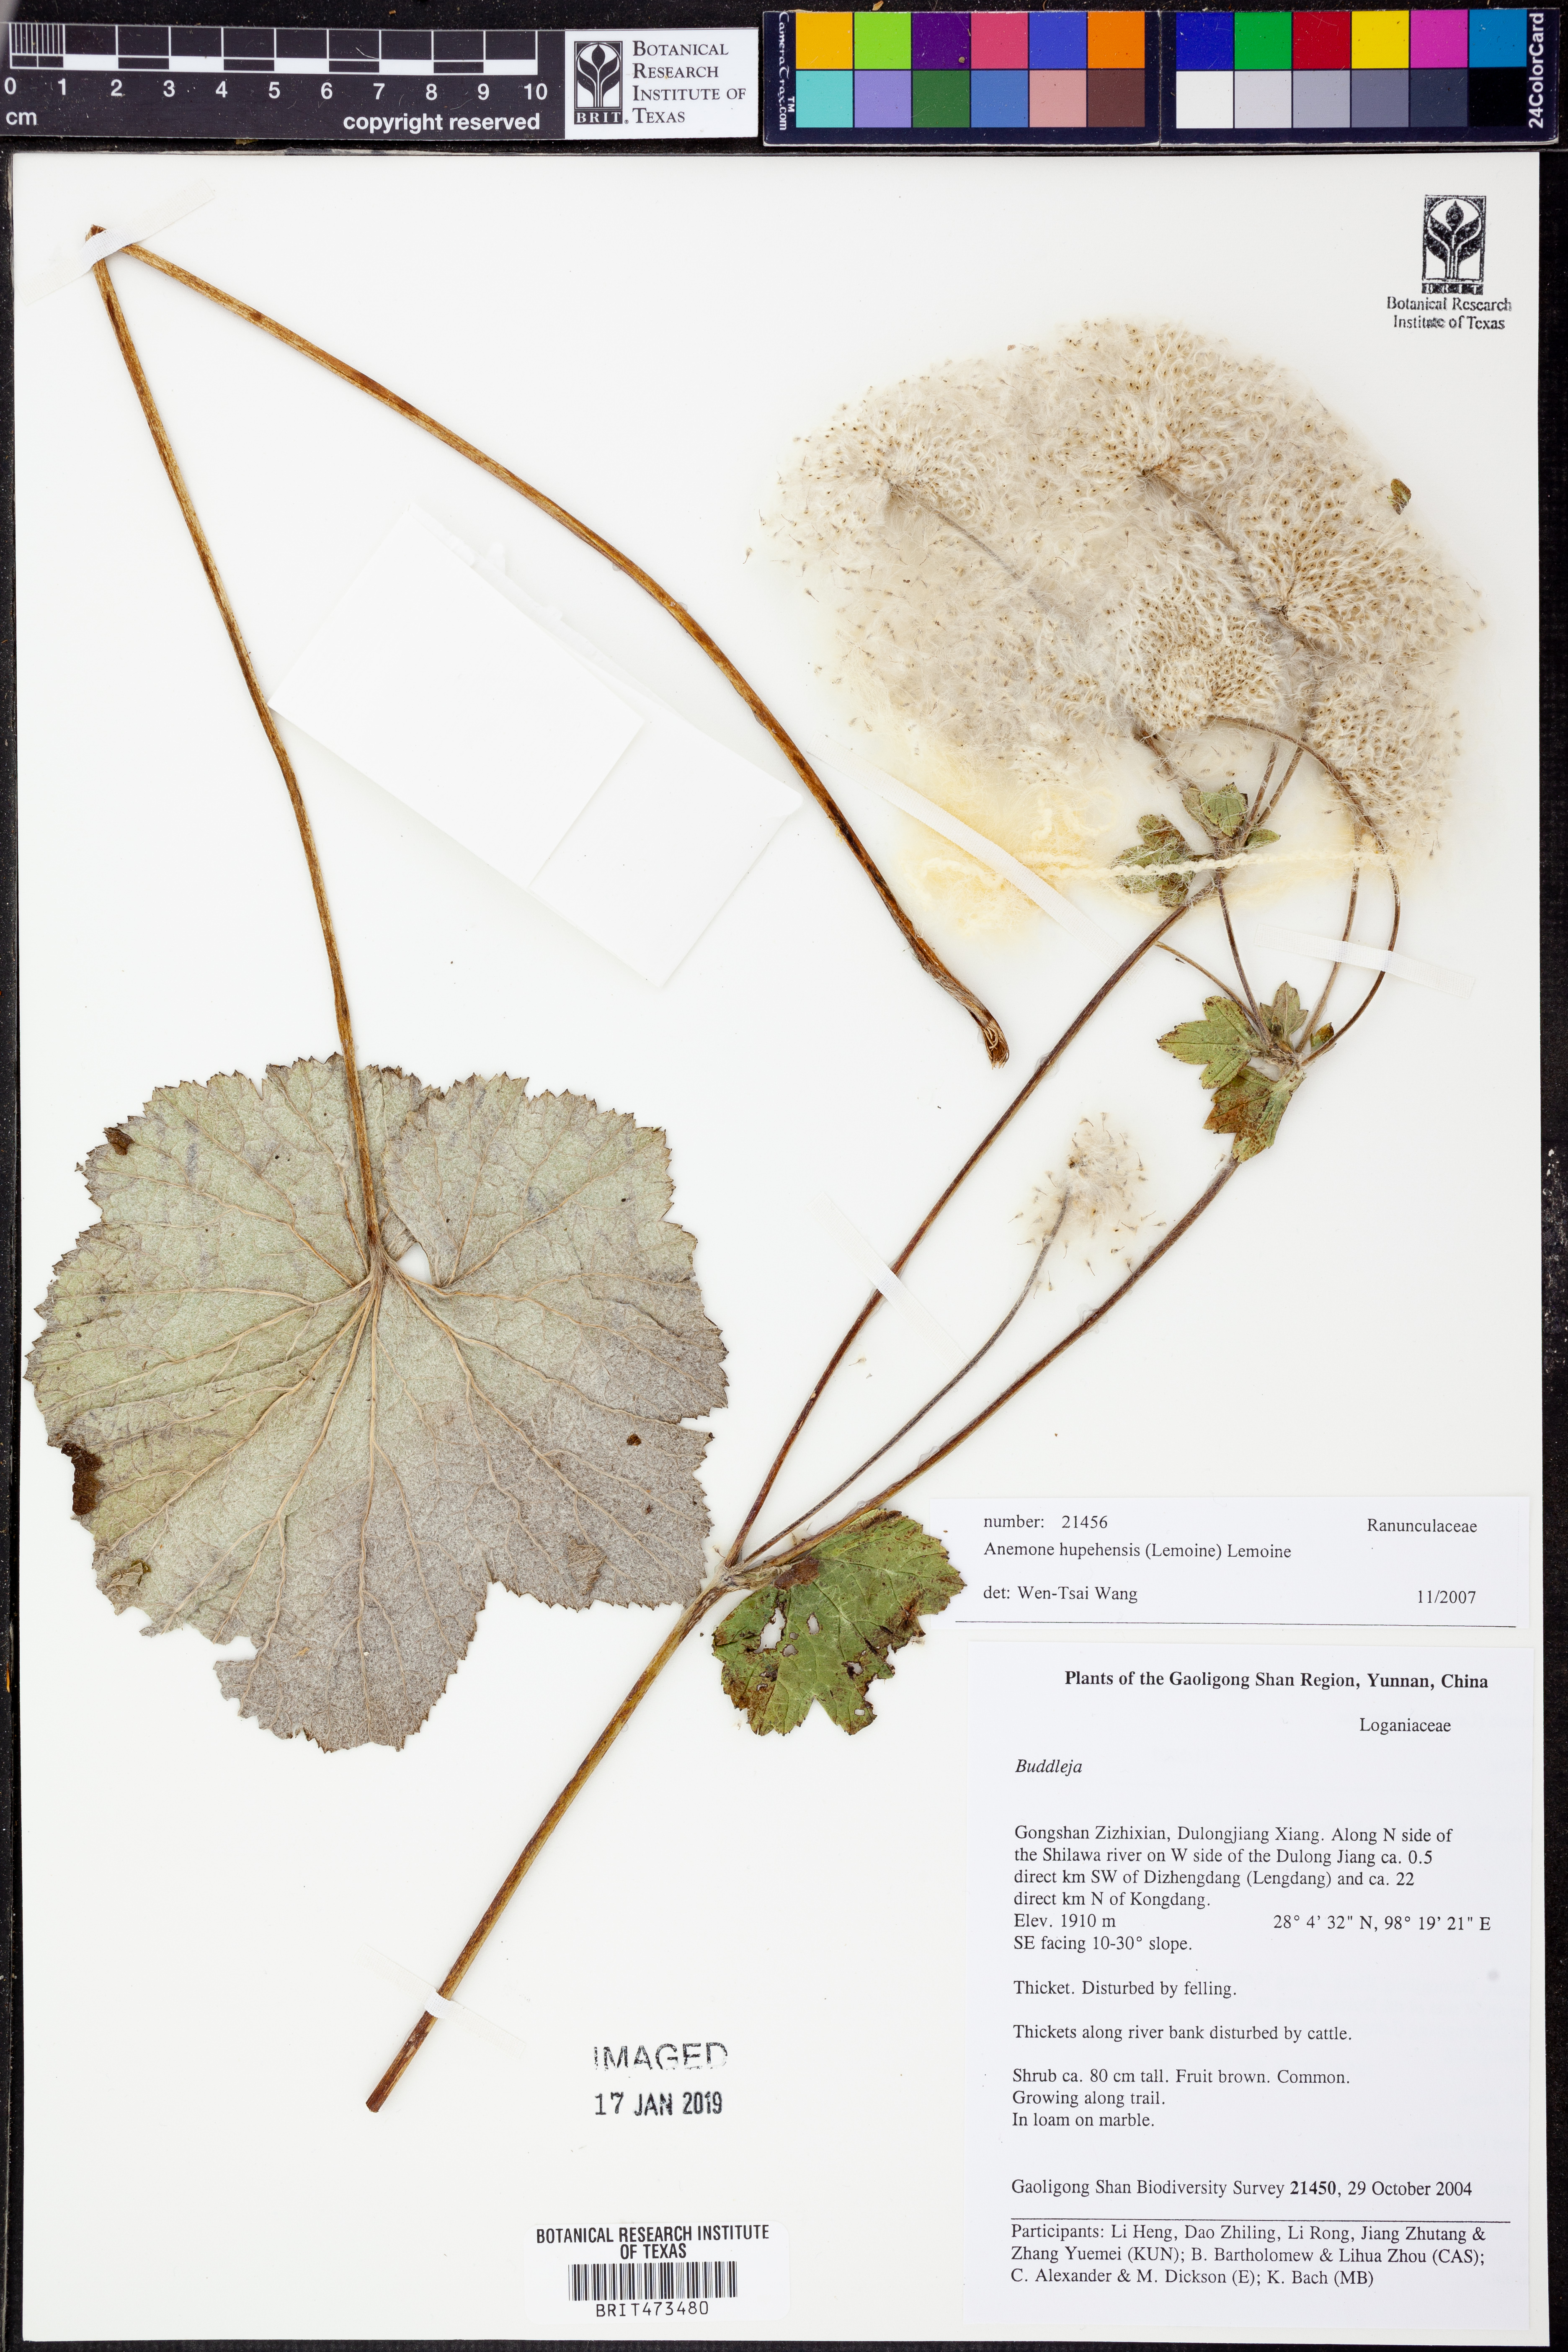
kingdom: Plantae
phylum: Tracheophyta
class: Magnoliopsida
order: Ranunculales
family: Ranunculaceae
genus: Eriocapitella
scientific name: Eriocapitella hupehensis
